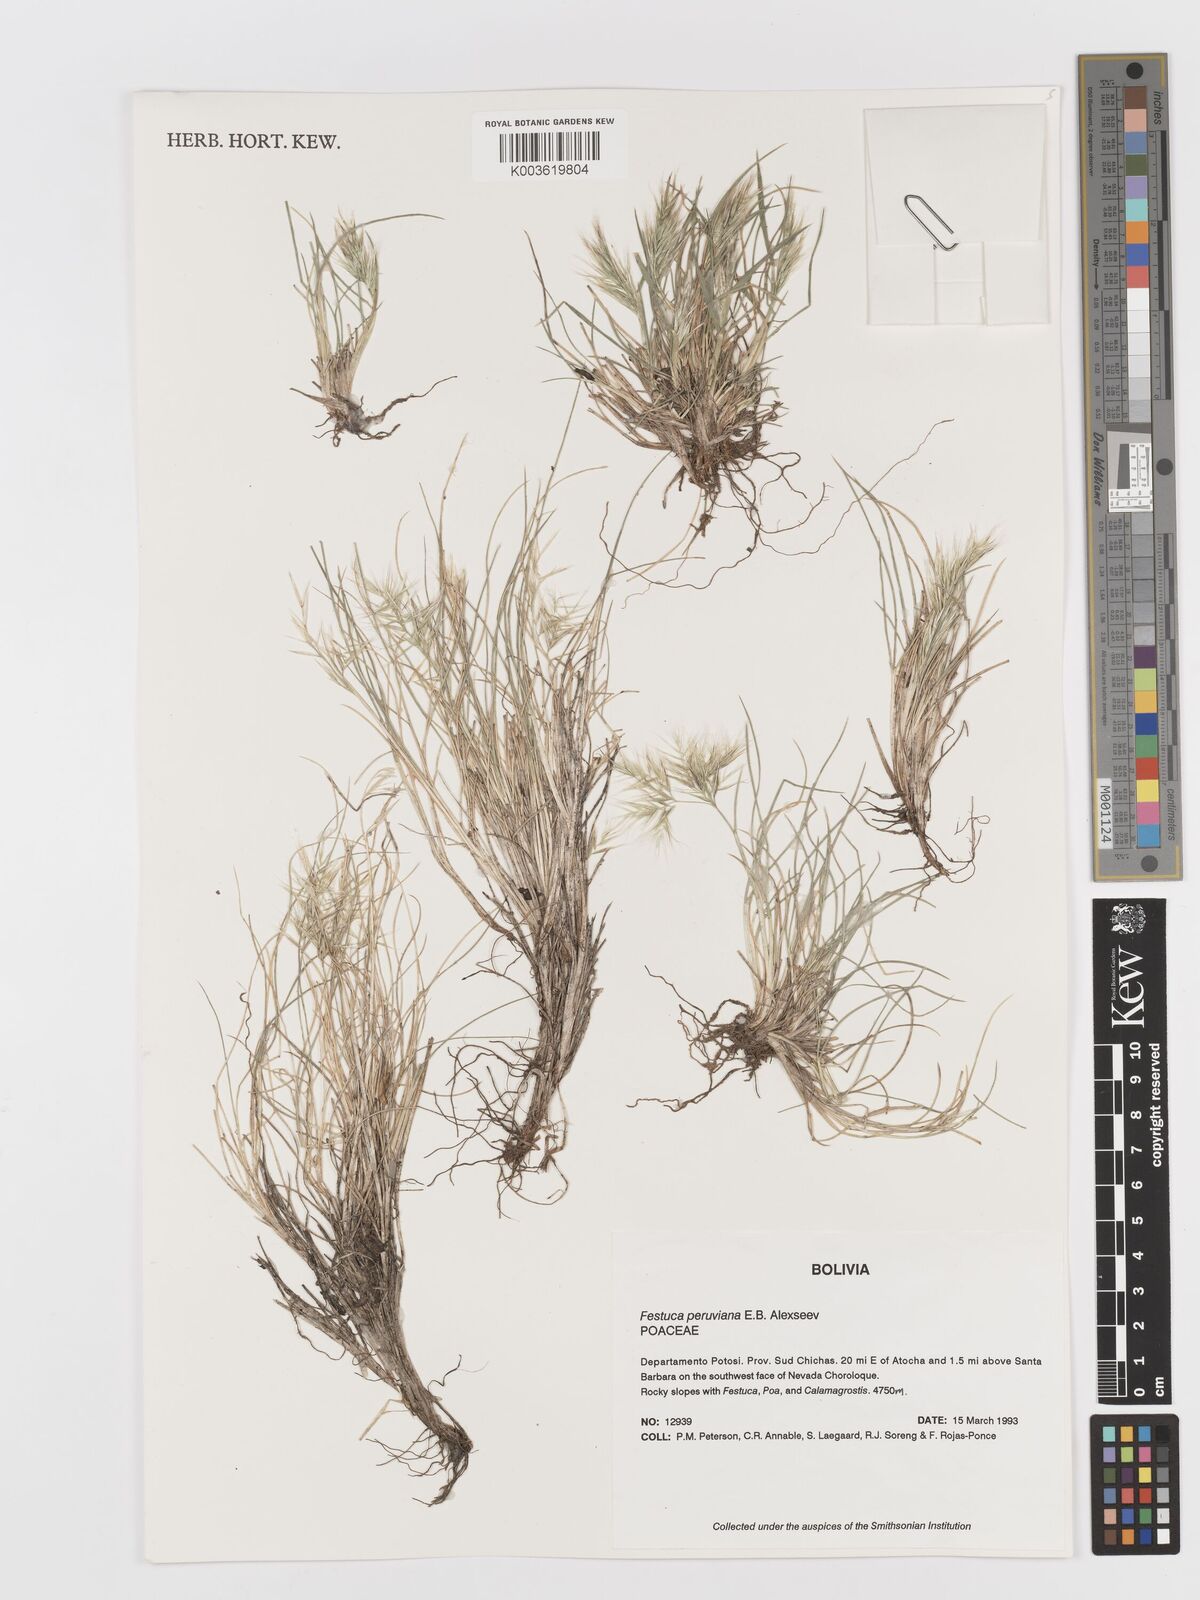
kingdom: Plantae
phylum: Tracheophyta
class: Liliopsida
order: Poales
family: Poaceae
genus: Festuca
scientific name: Festuca floribunda
